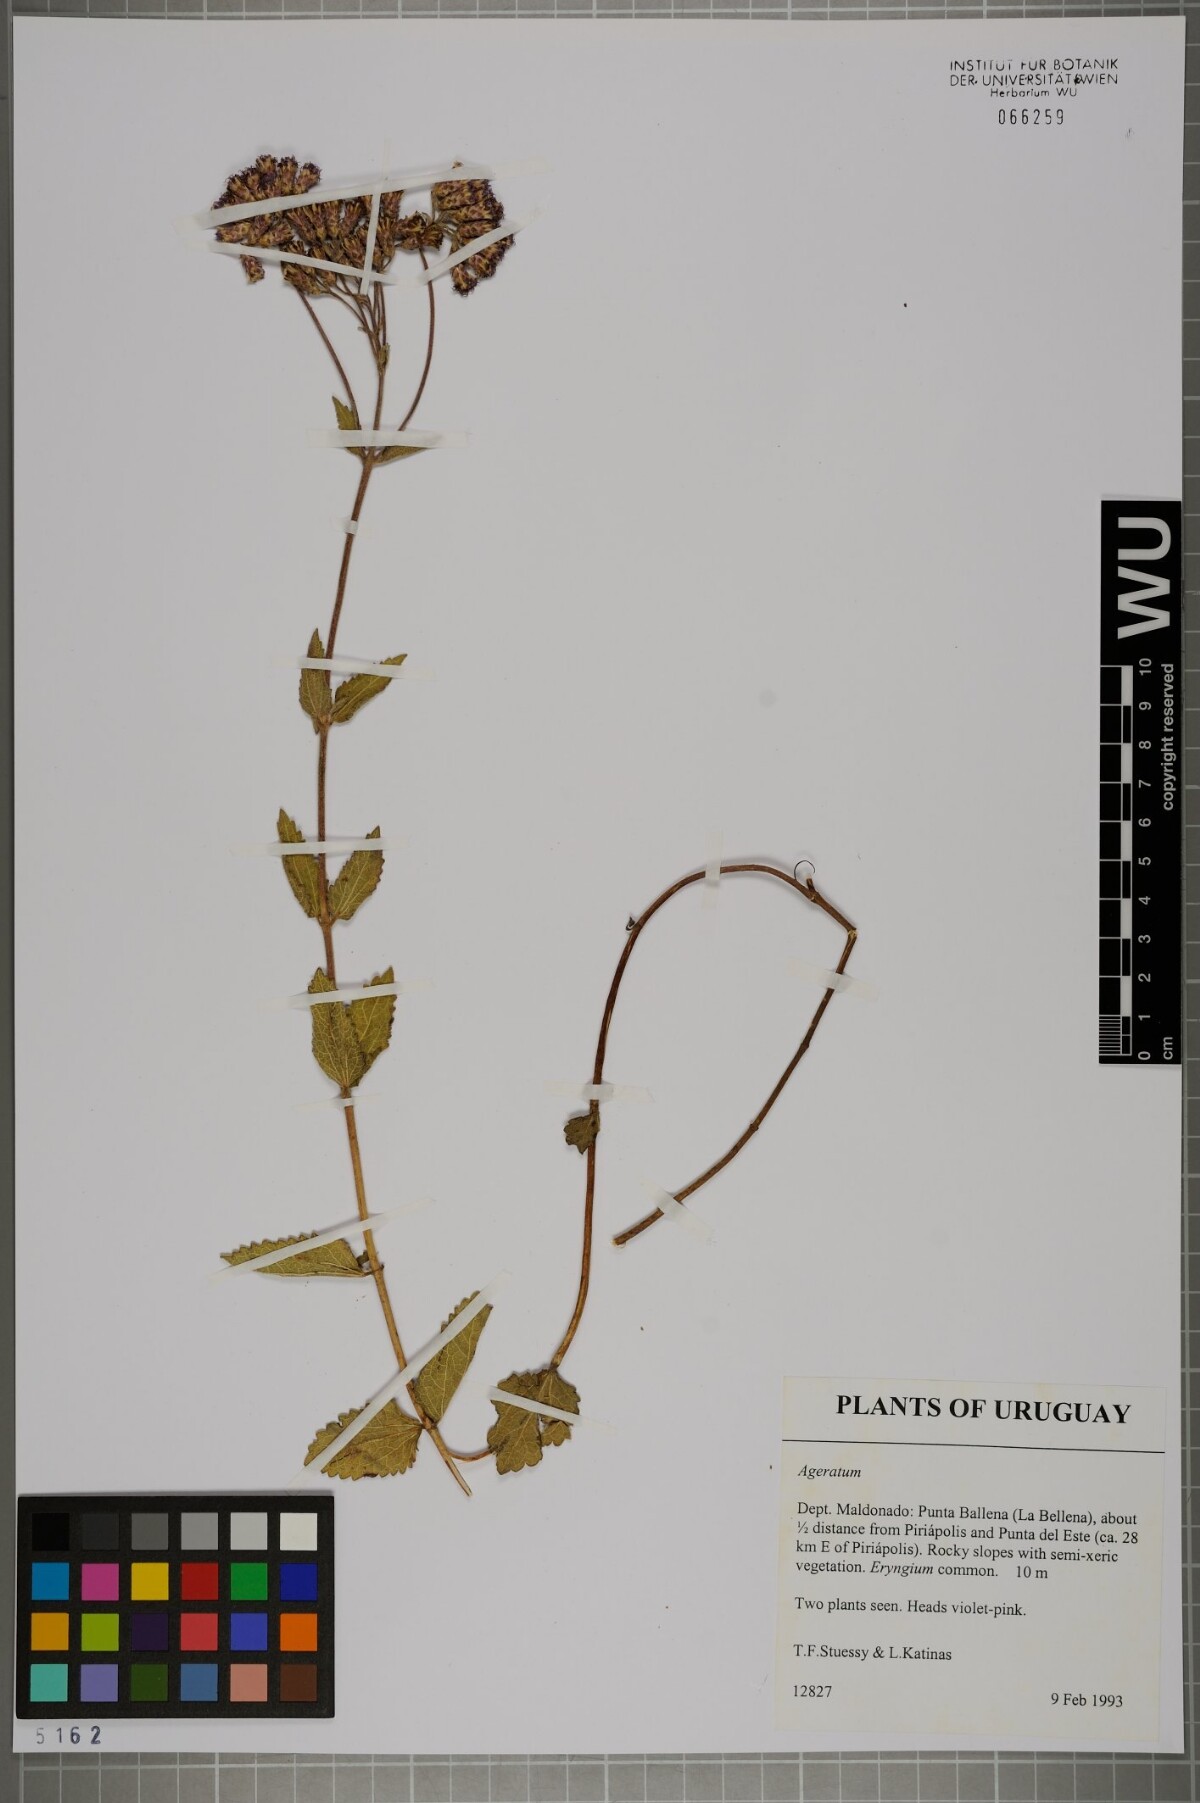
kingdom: Plantae
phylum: Tracheophyta
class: Magnoliopsida
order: Asterales
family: Asteraceae
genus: Ageratum
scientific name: Ageratum
